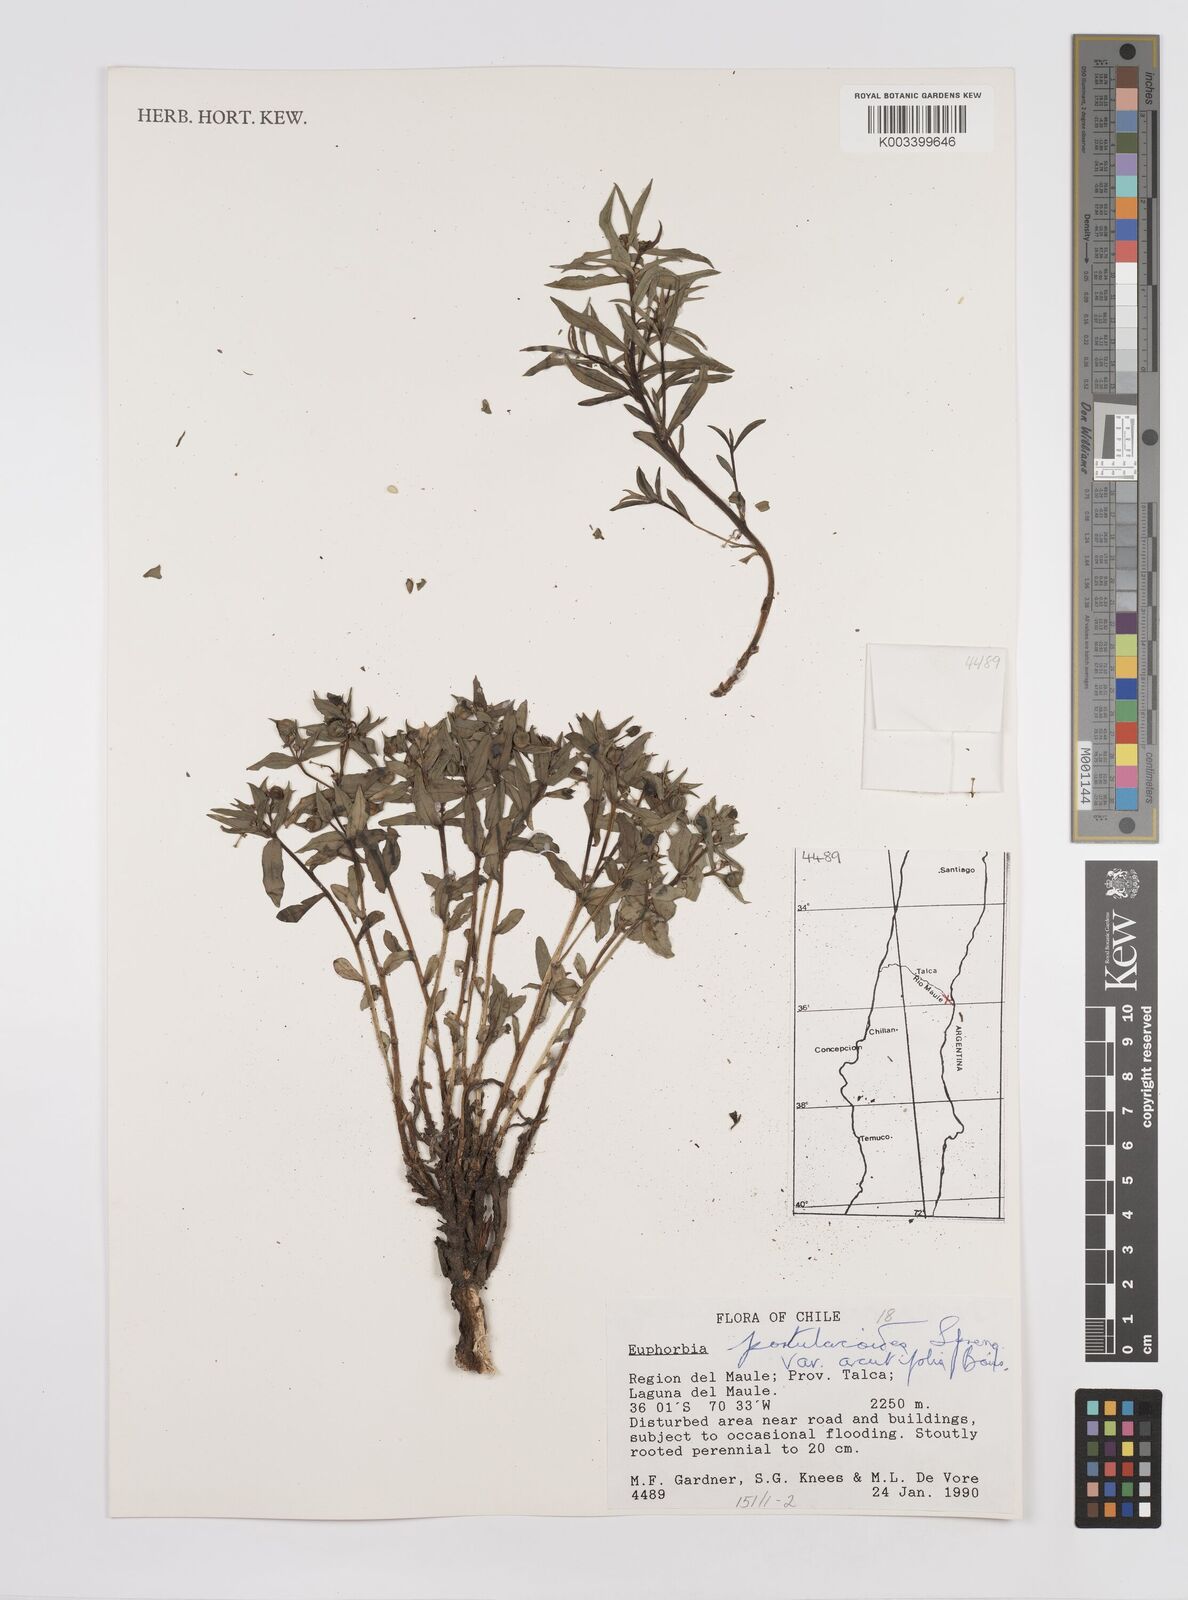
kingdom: Plantae
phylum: Tracheophyta
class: Magnoliopsida
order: Malpighiales
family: Euphorbiaceae
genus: Euphorbia
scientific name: Euphorbia portulacoides
